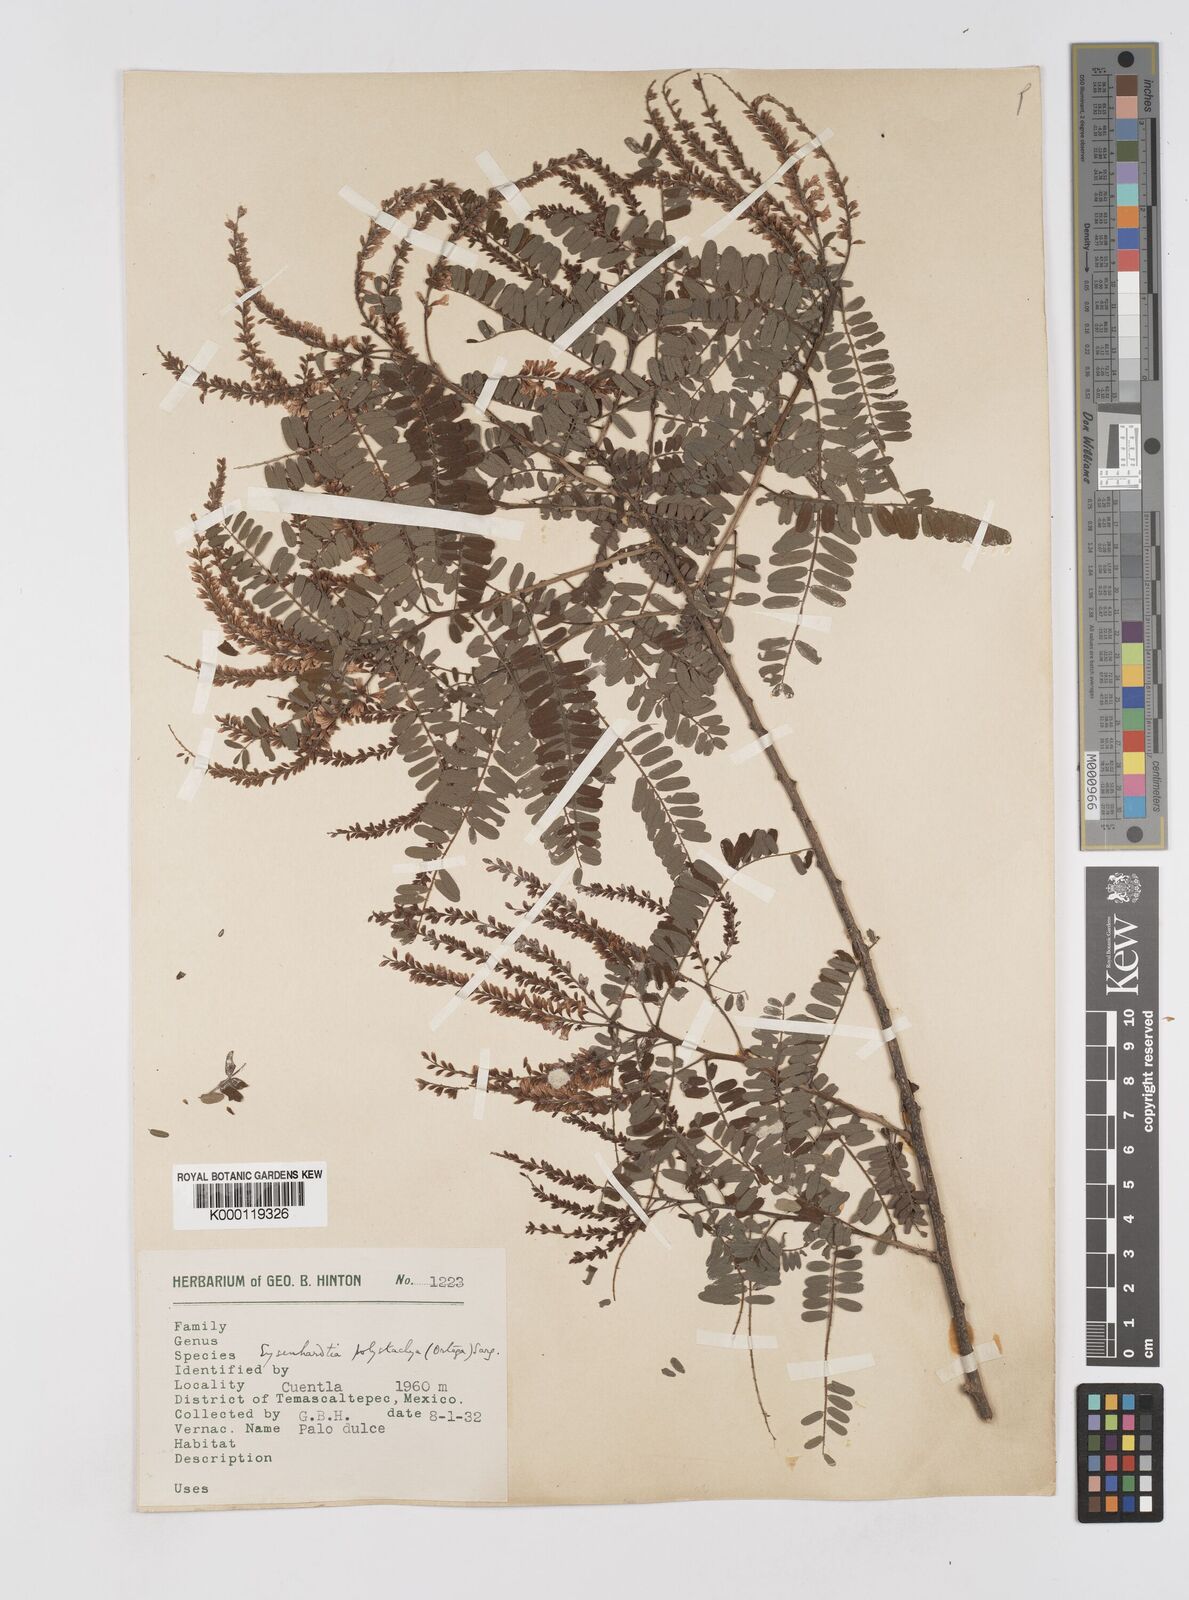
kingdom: Plantae
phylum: Tracheophyta
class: Magnoliopsida
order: Fabales
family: Fabaceae
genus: Eysenhardtia
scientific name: Eysenhardtia polystachya
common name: Kidneywood
